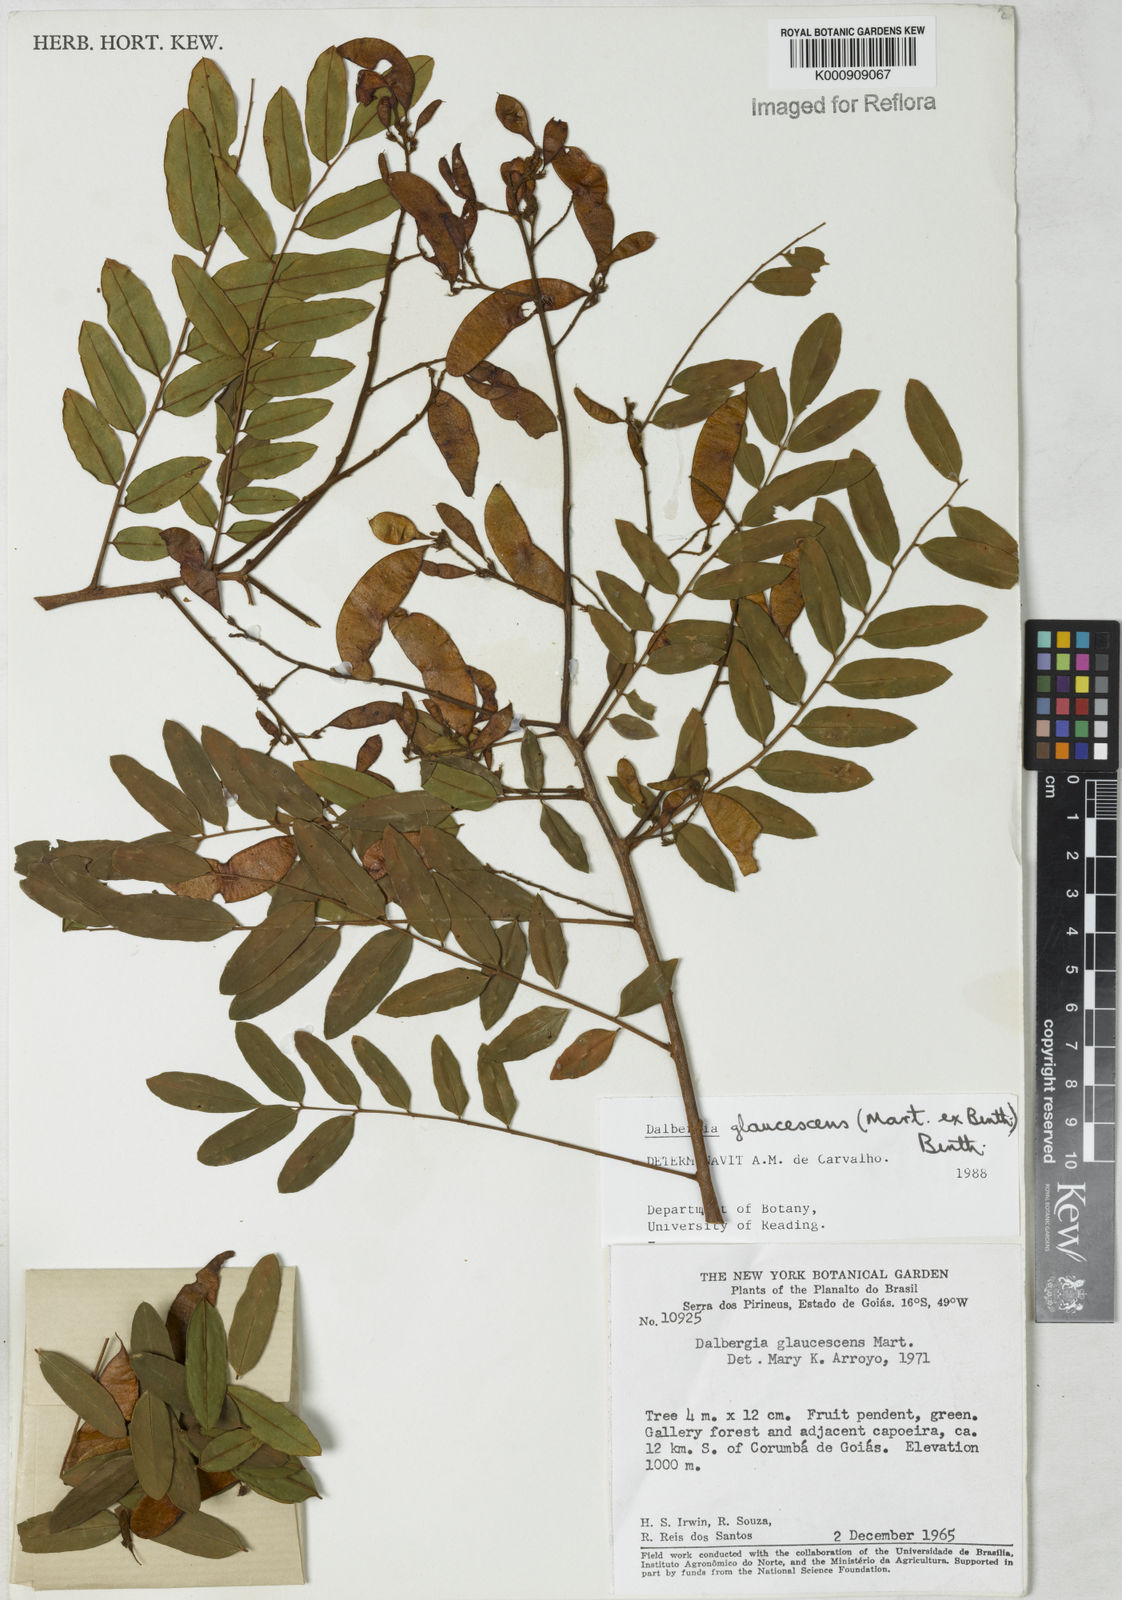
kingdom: Plantae
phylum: Tracheophyta
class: Magnoliopsida
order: Fabales
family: Fabaceae
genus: Dalbergia
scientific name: Dalbergia glaucescens
